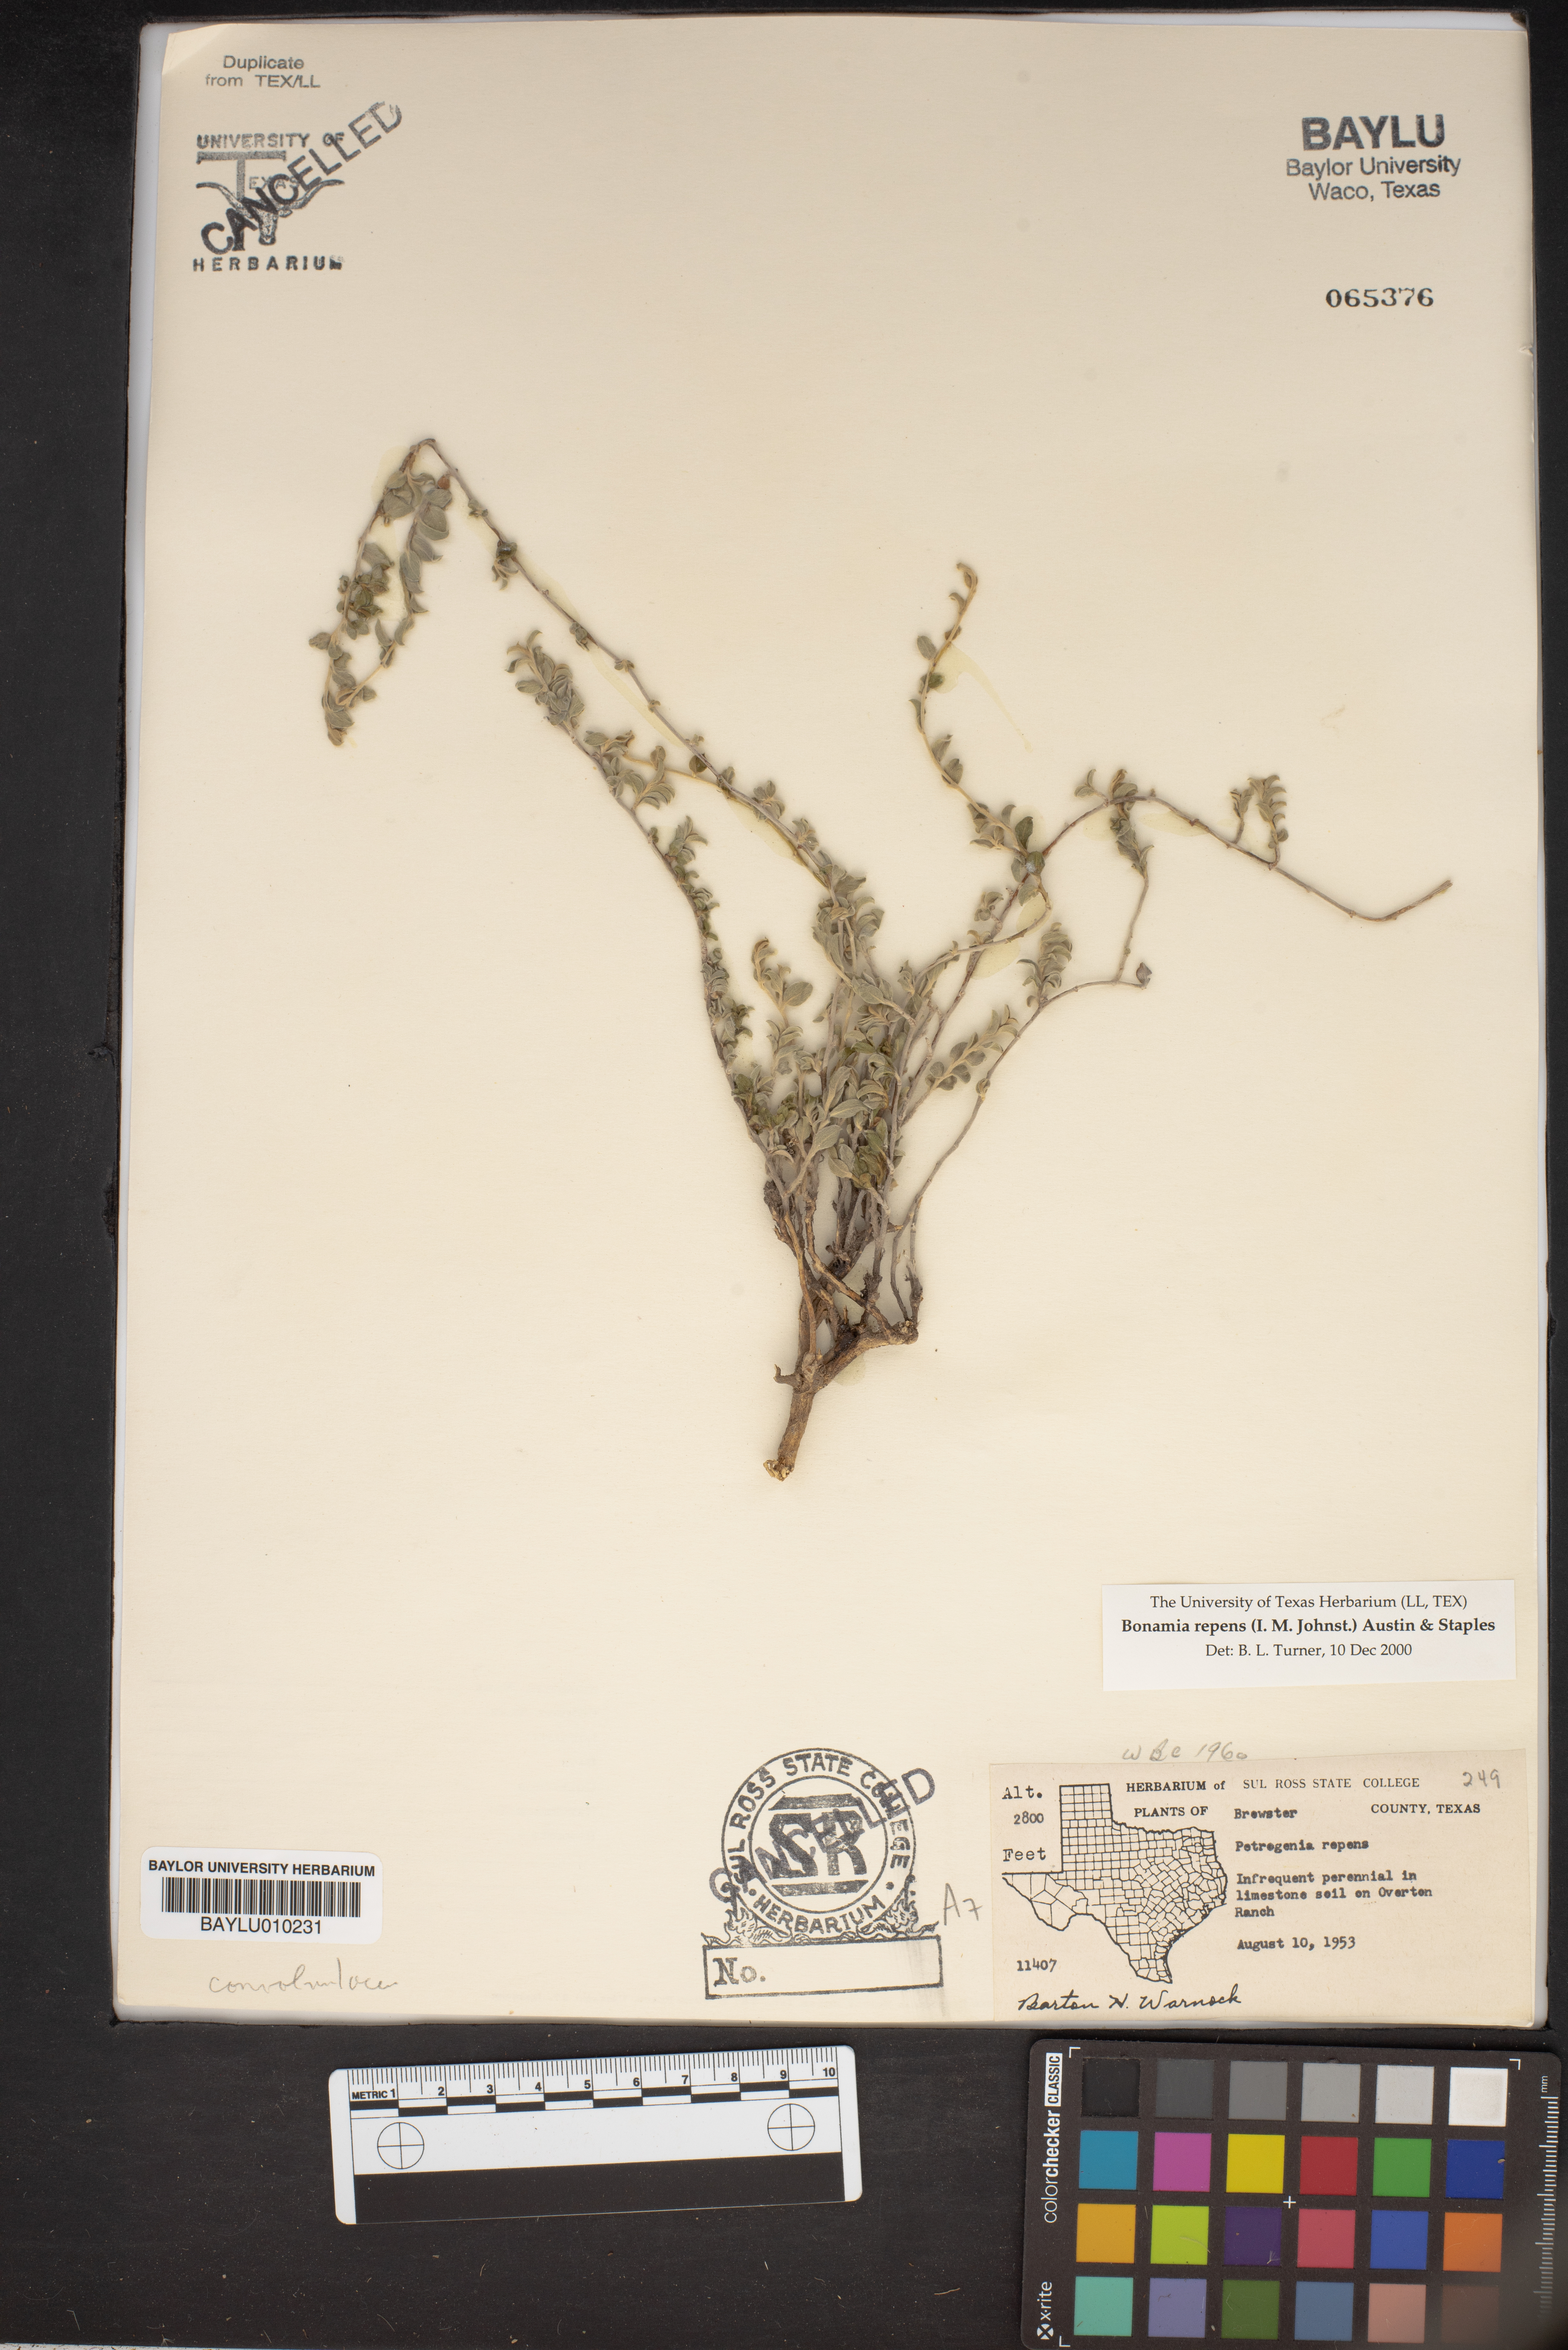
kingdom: Plantae
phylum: Tracheophyta
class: Magnoliopsida
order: Solanales
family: Convolvulaceae
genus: Bonamia
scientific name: Bonamia repens
